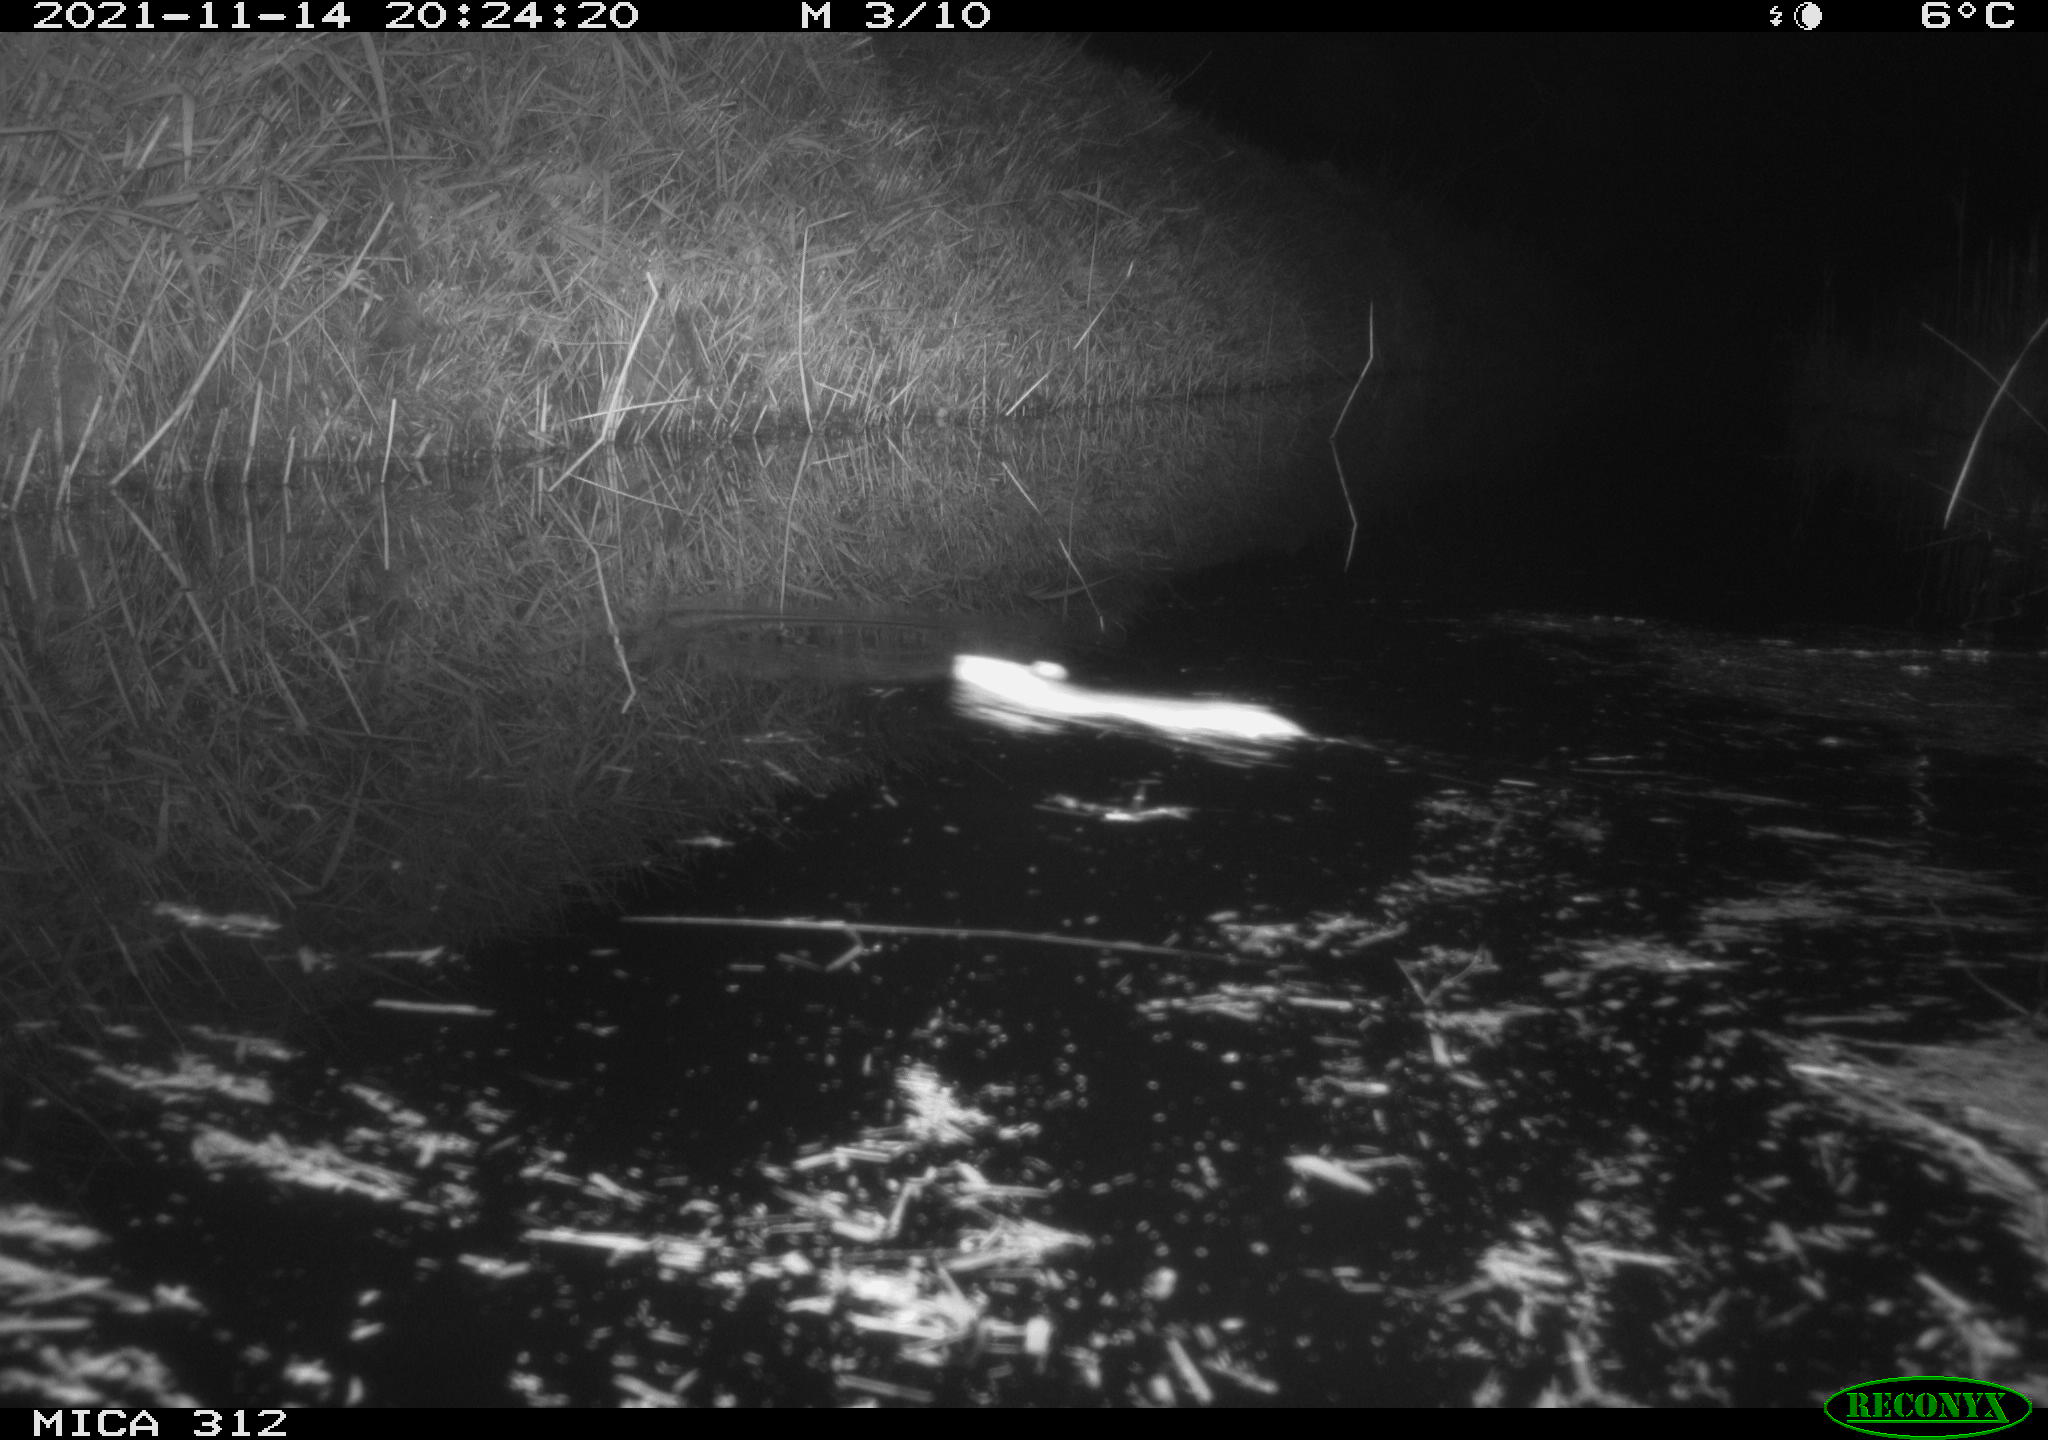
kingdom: Animalia
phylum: Chordata
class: Mammalia
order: Rodentia
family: Muridae
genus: Rattus
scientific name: Rattus norvegicus
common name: Brown rat
